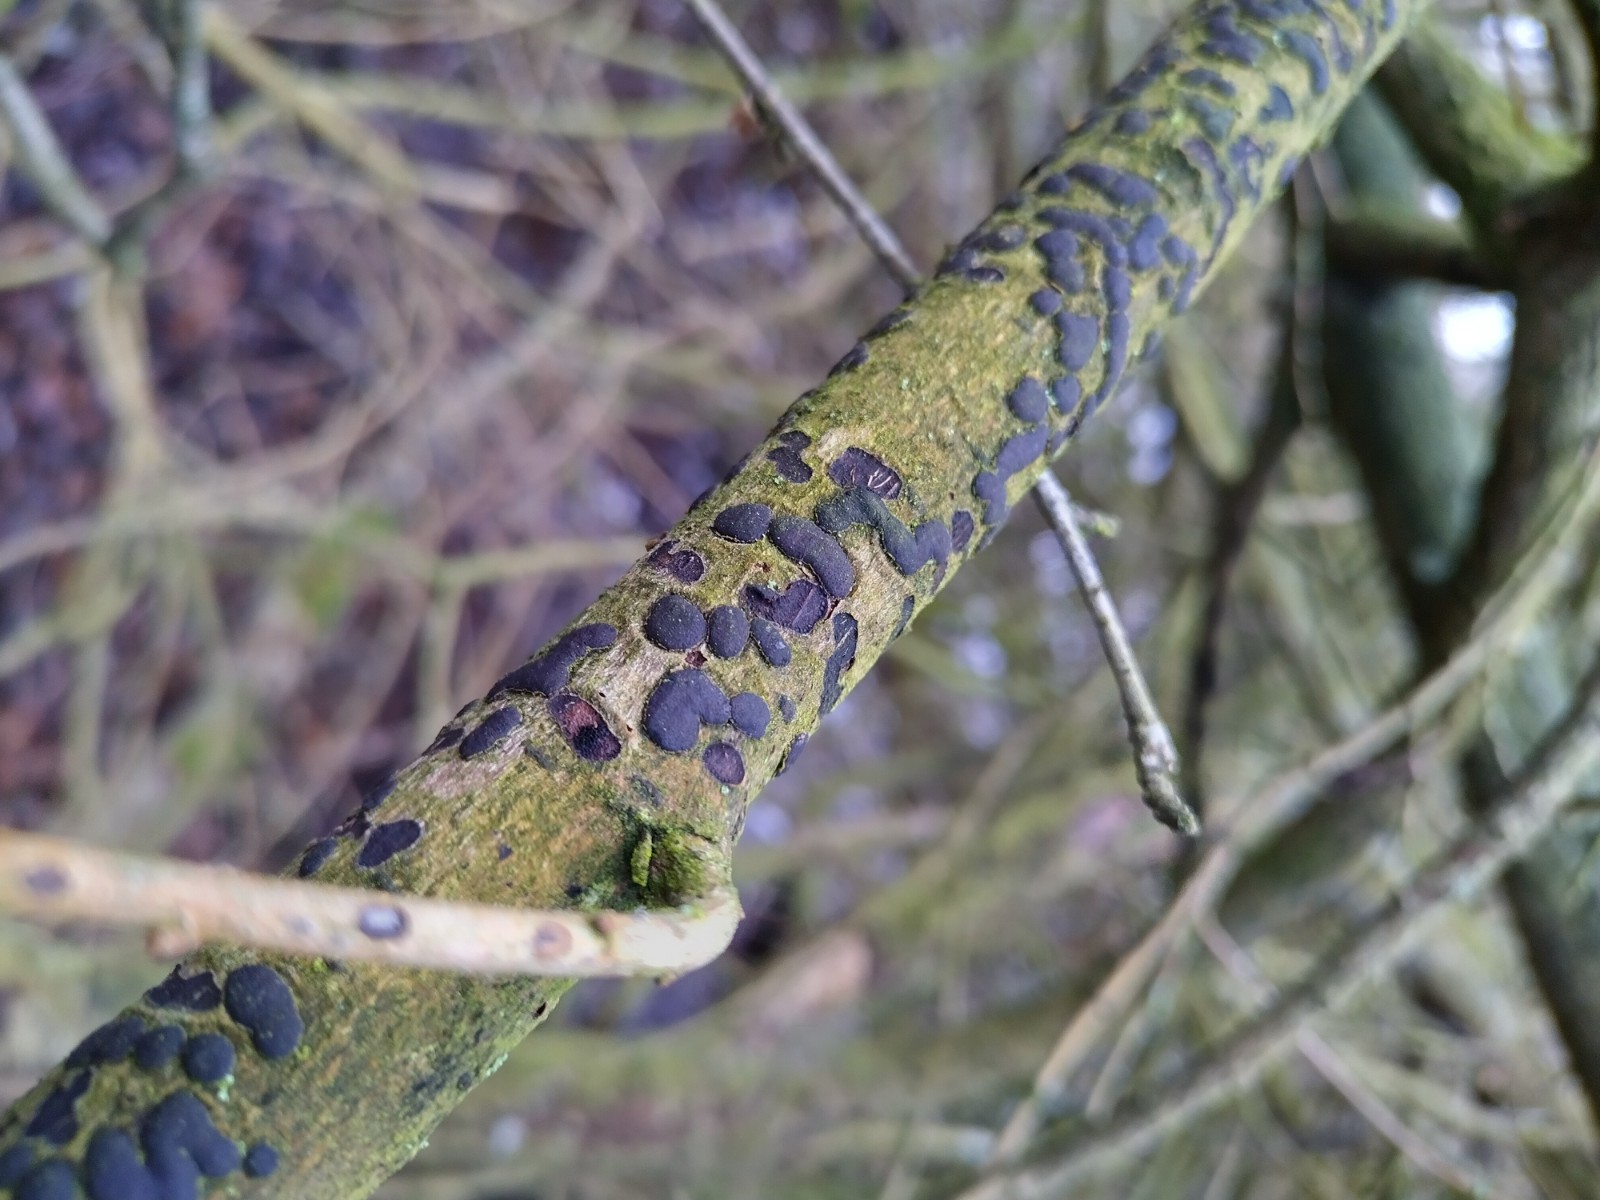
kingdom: Fungi
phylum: Ascomycota
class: Sordariomycetes
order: Xylariales
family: Hypoxylaceae
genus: Jackrogersella
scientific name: Jackrogersella multiformis
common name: foranderlig kulbær
